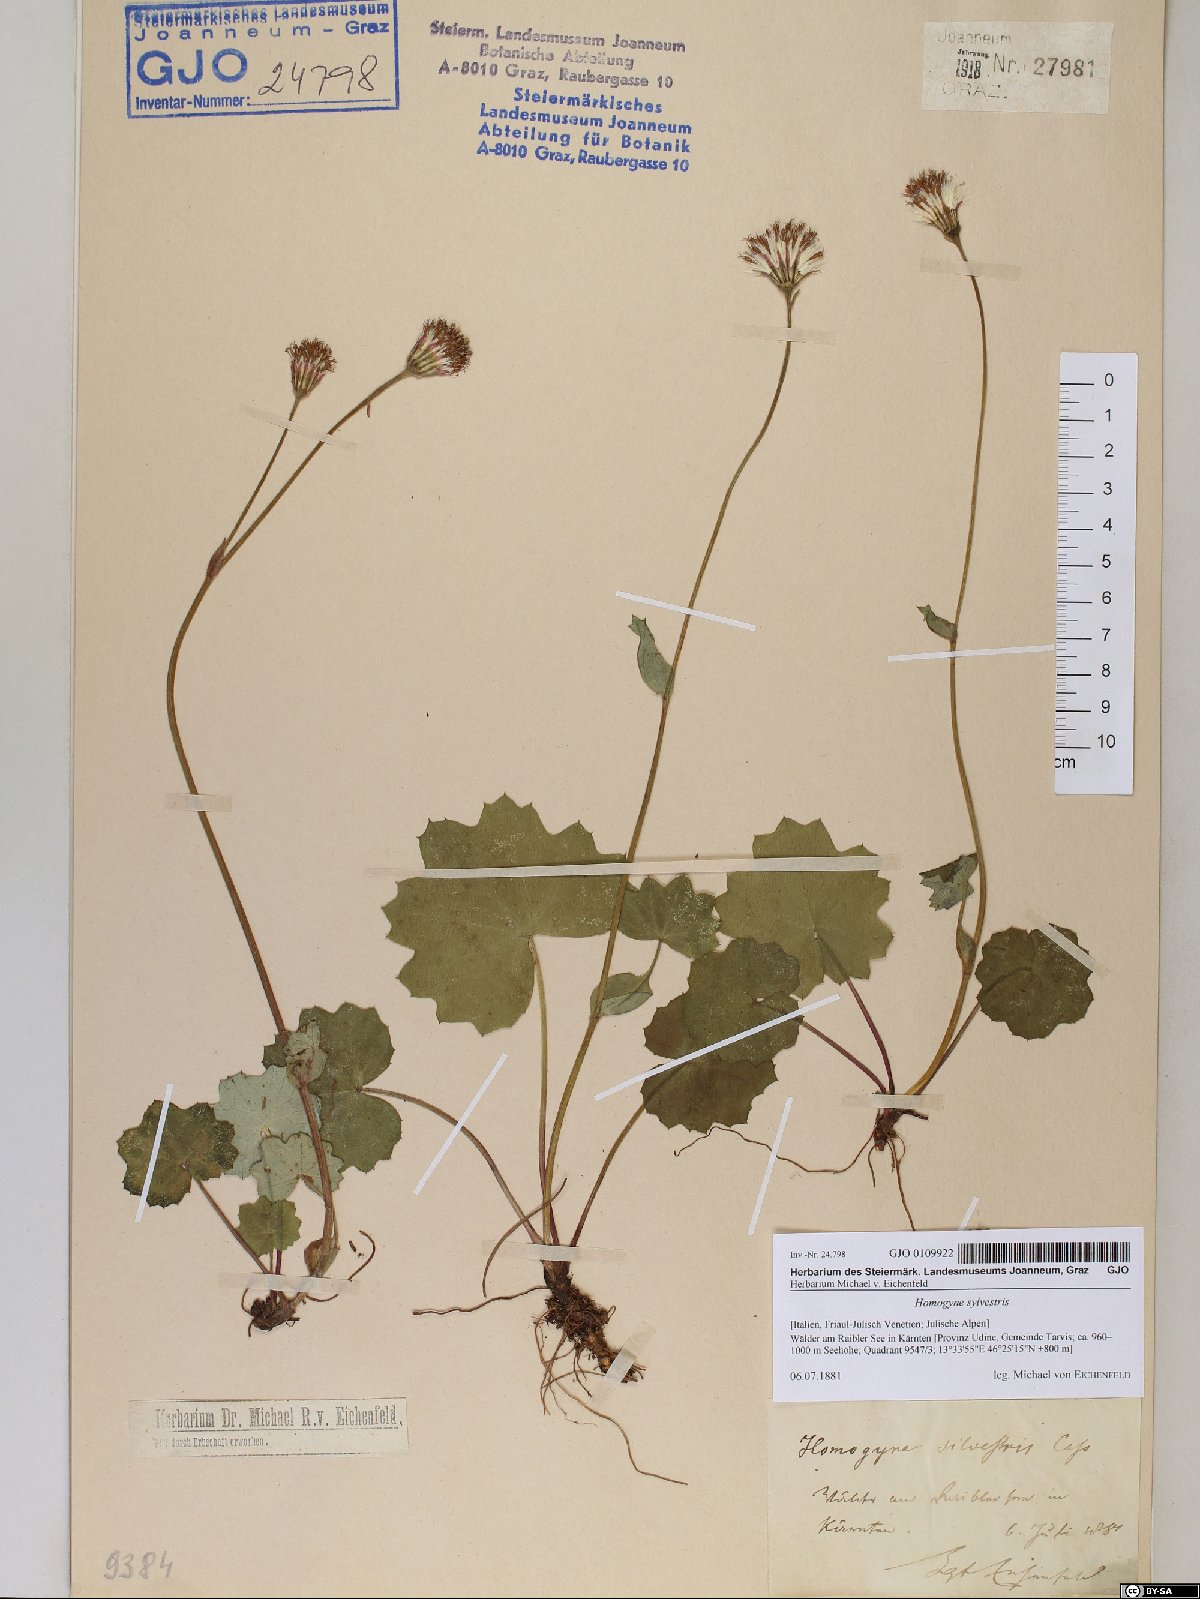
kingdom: Plantae
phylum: Tracheophyta
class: Magnoliopsida
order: Asterales
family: Asteraceae
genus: Homogyne
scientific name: Homogyne sylvestris
